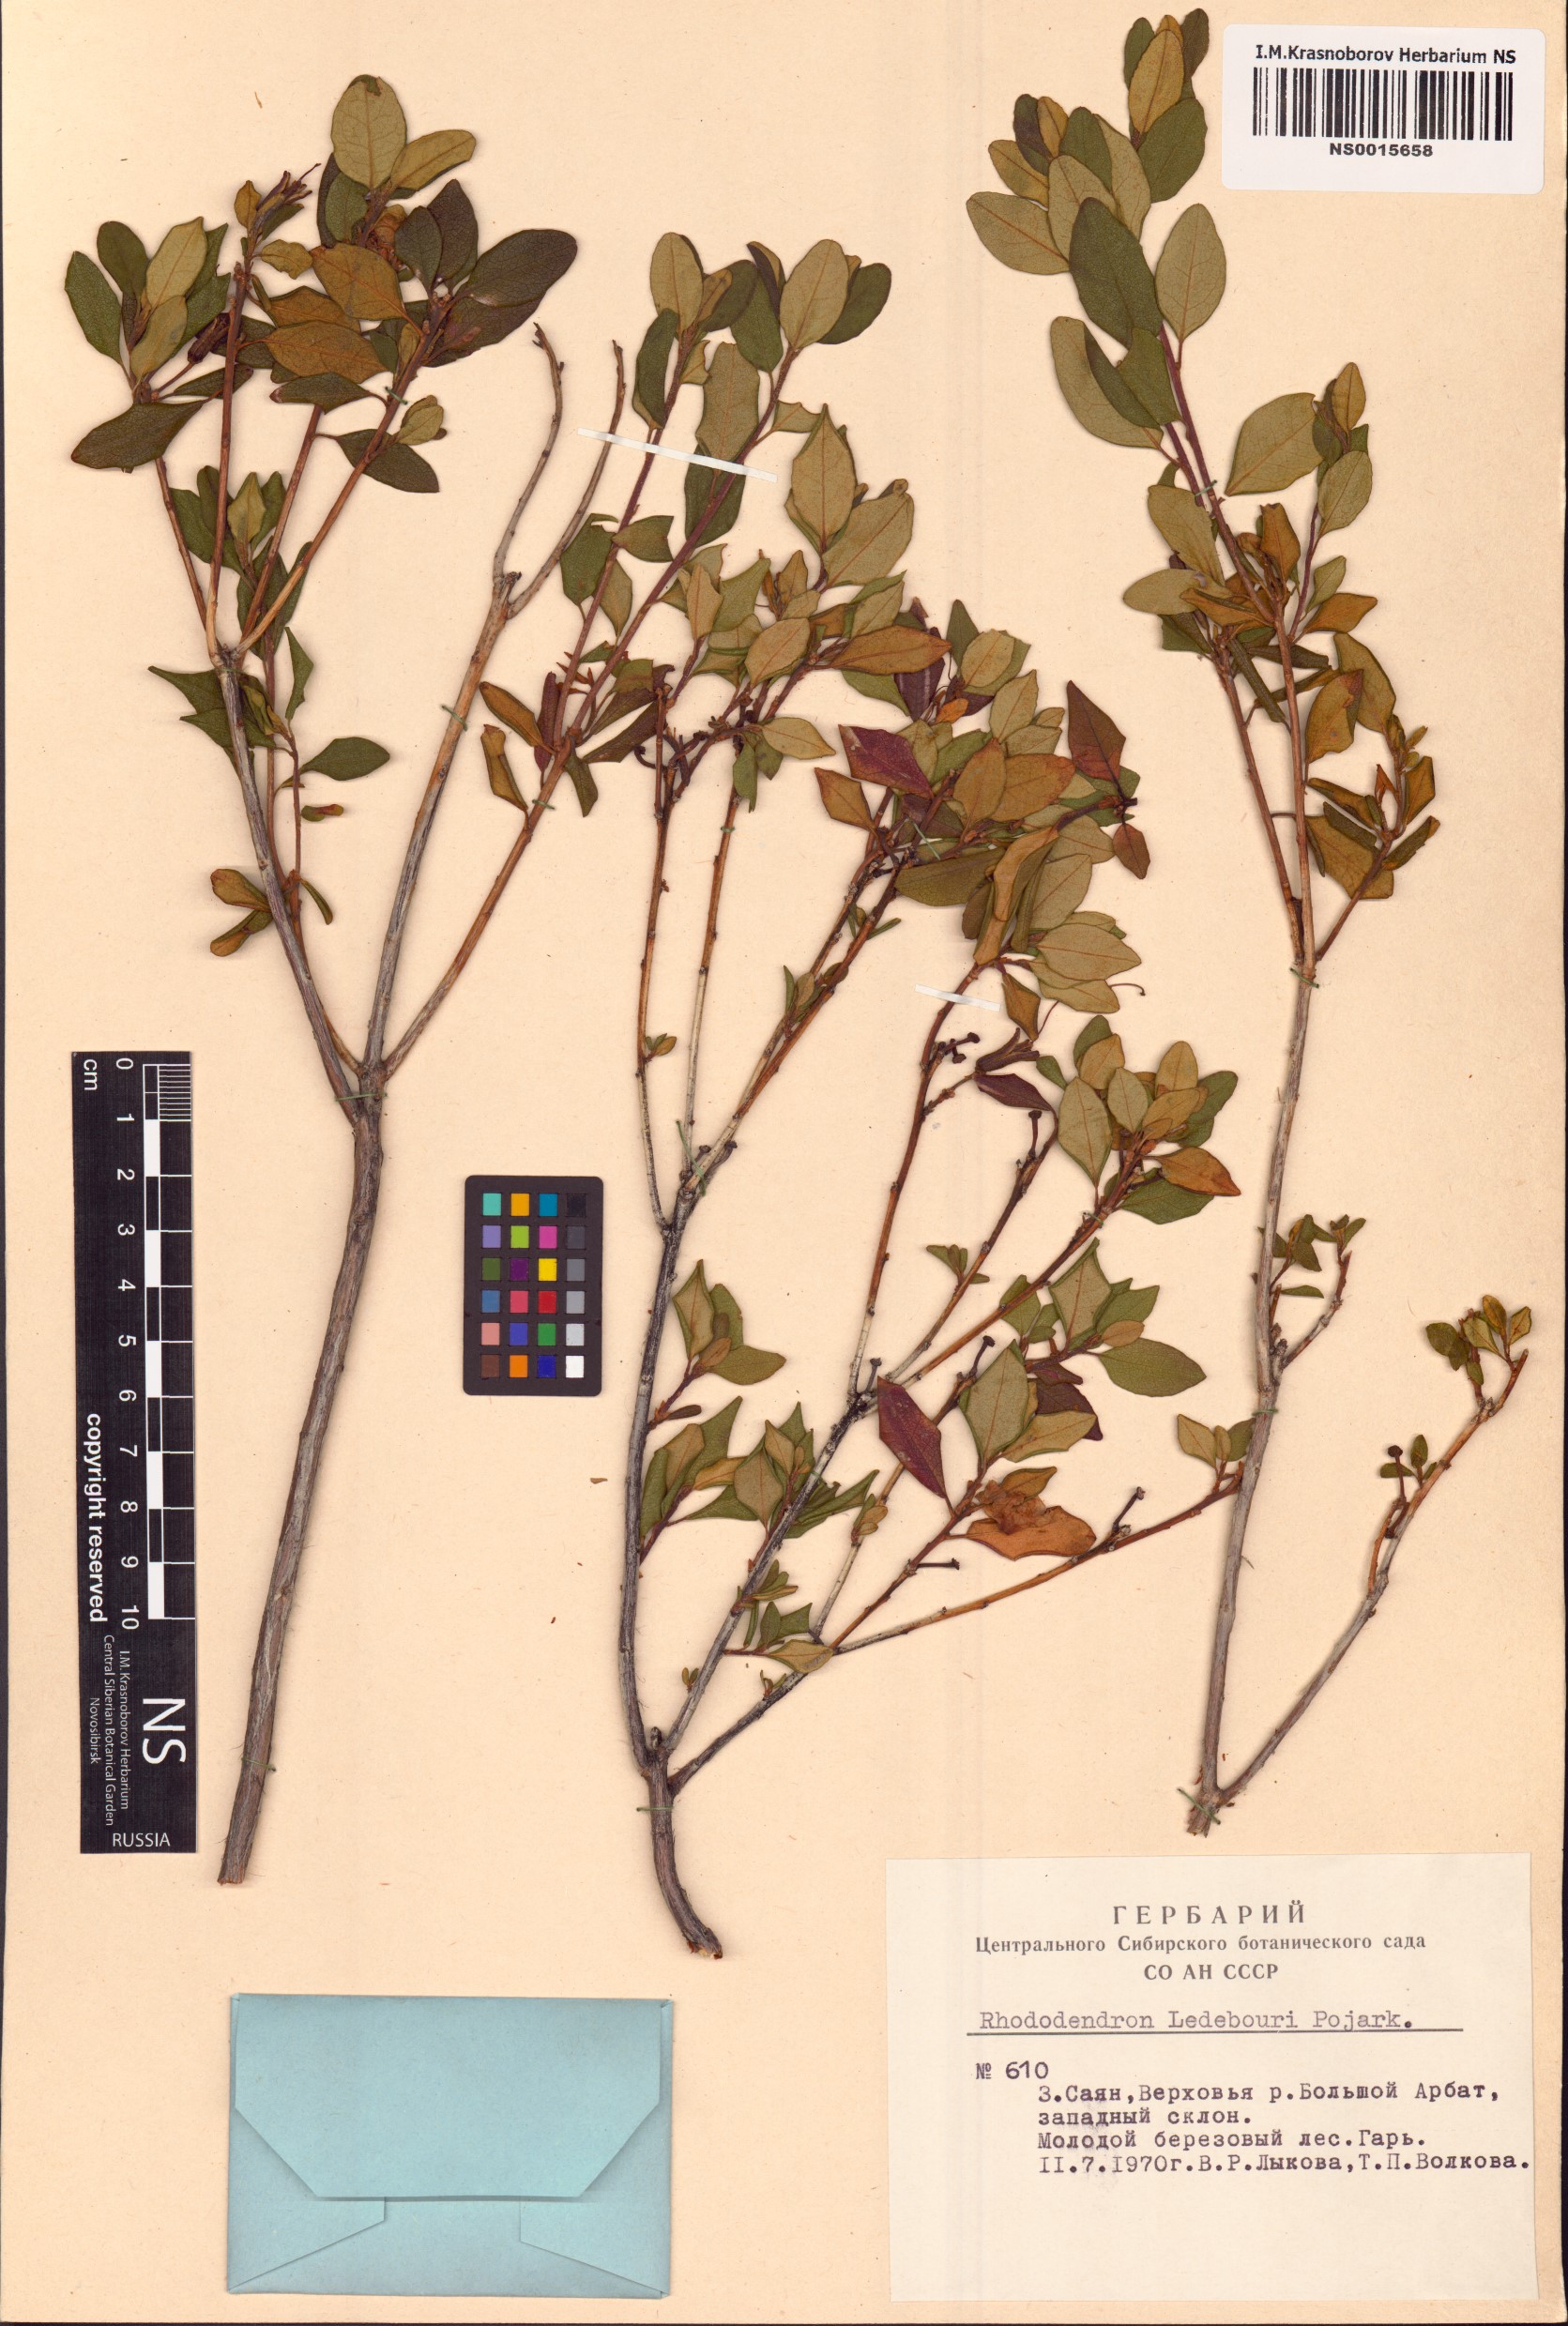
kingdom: Plantae
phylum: Tracheophyta
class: Magnoliopsida
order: Ericales
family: Ericaceae
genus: Rhododendron
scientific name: Rhododendron dauricum
